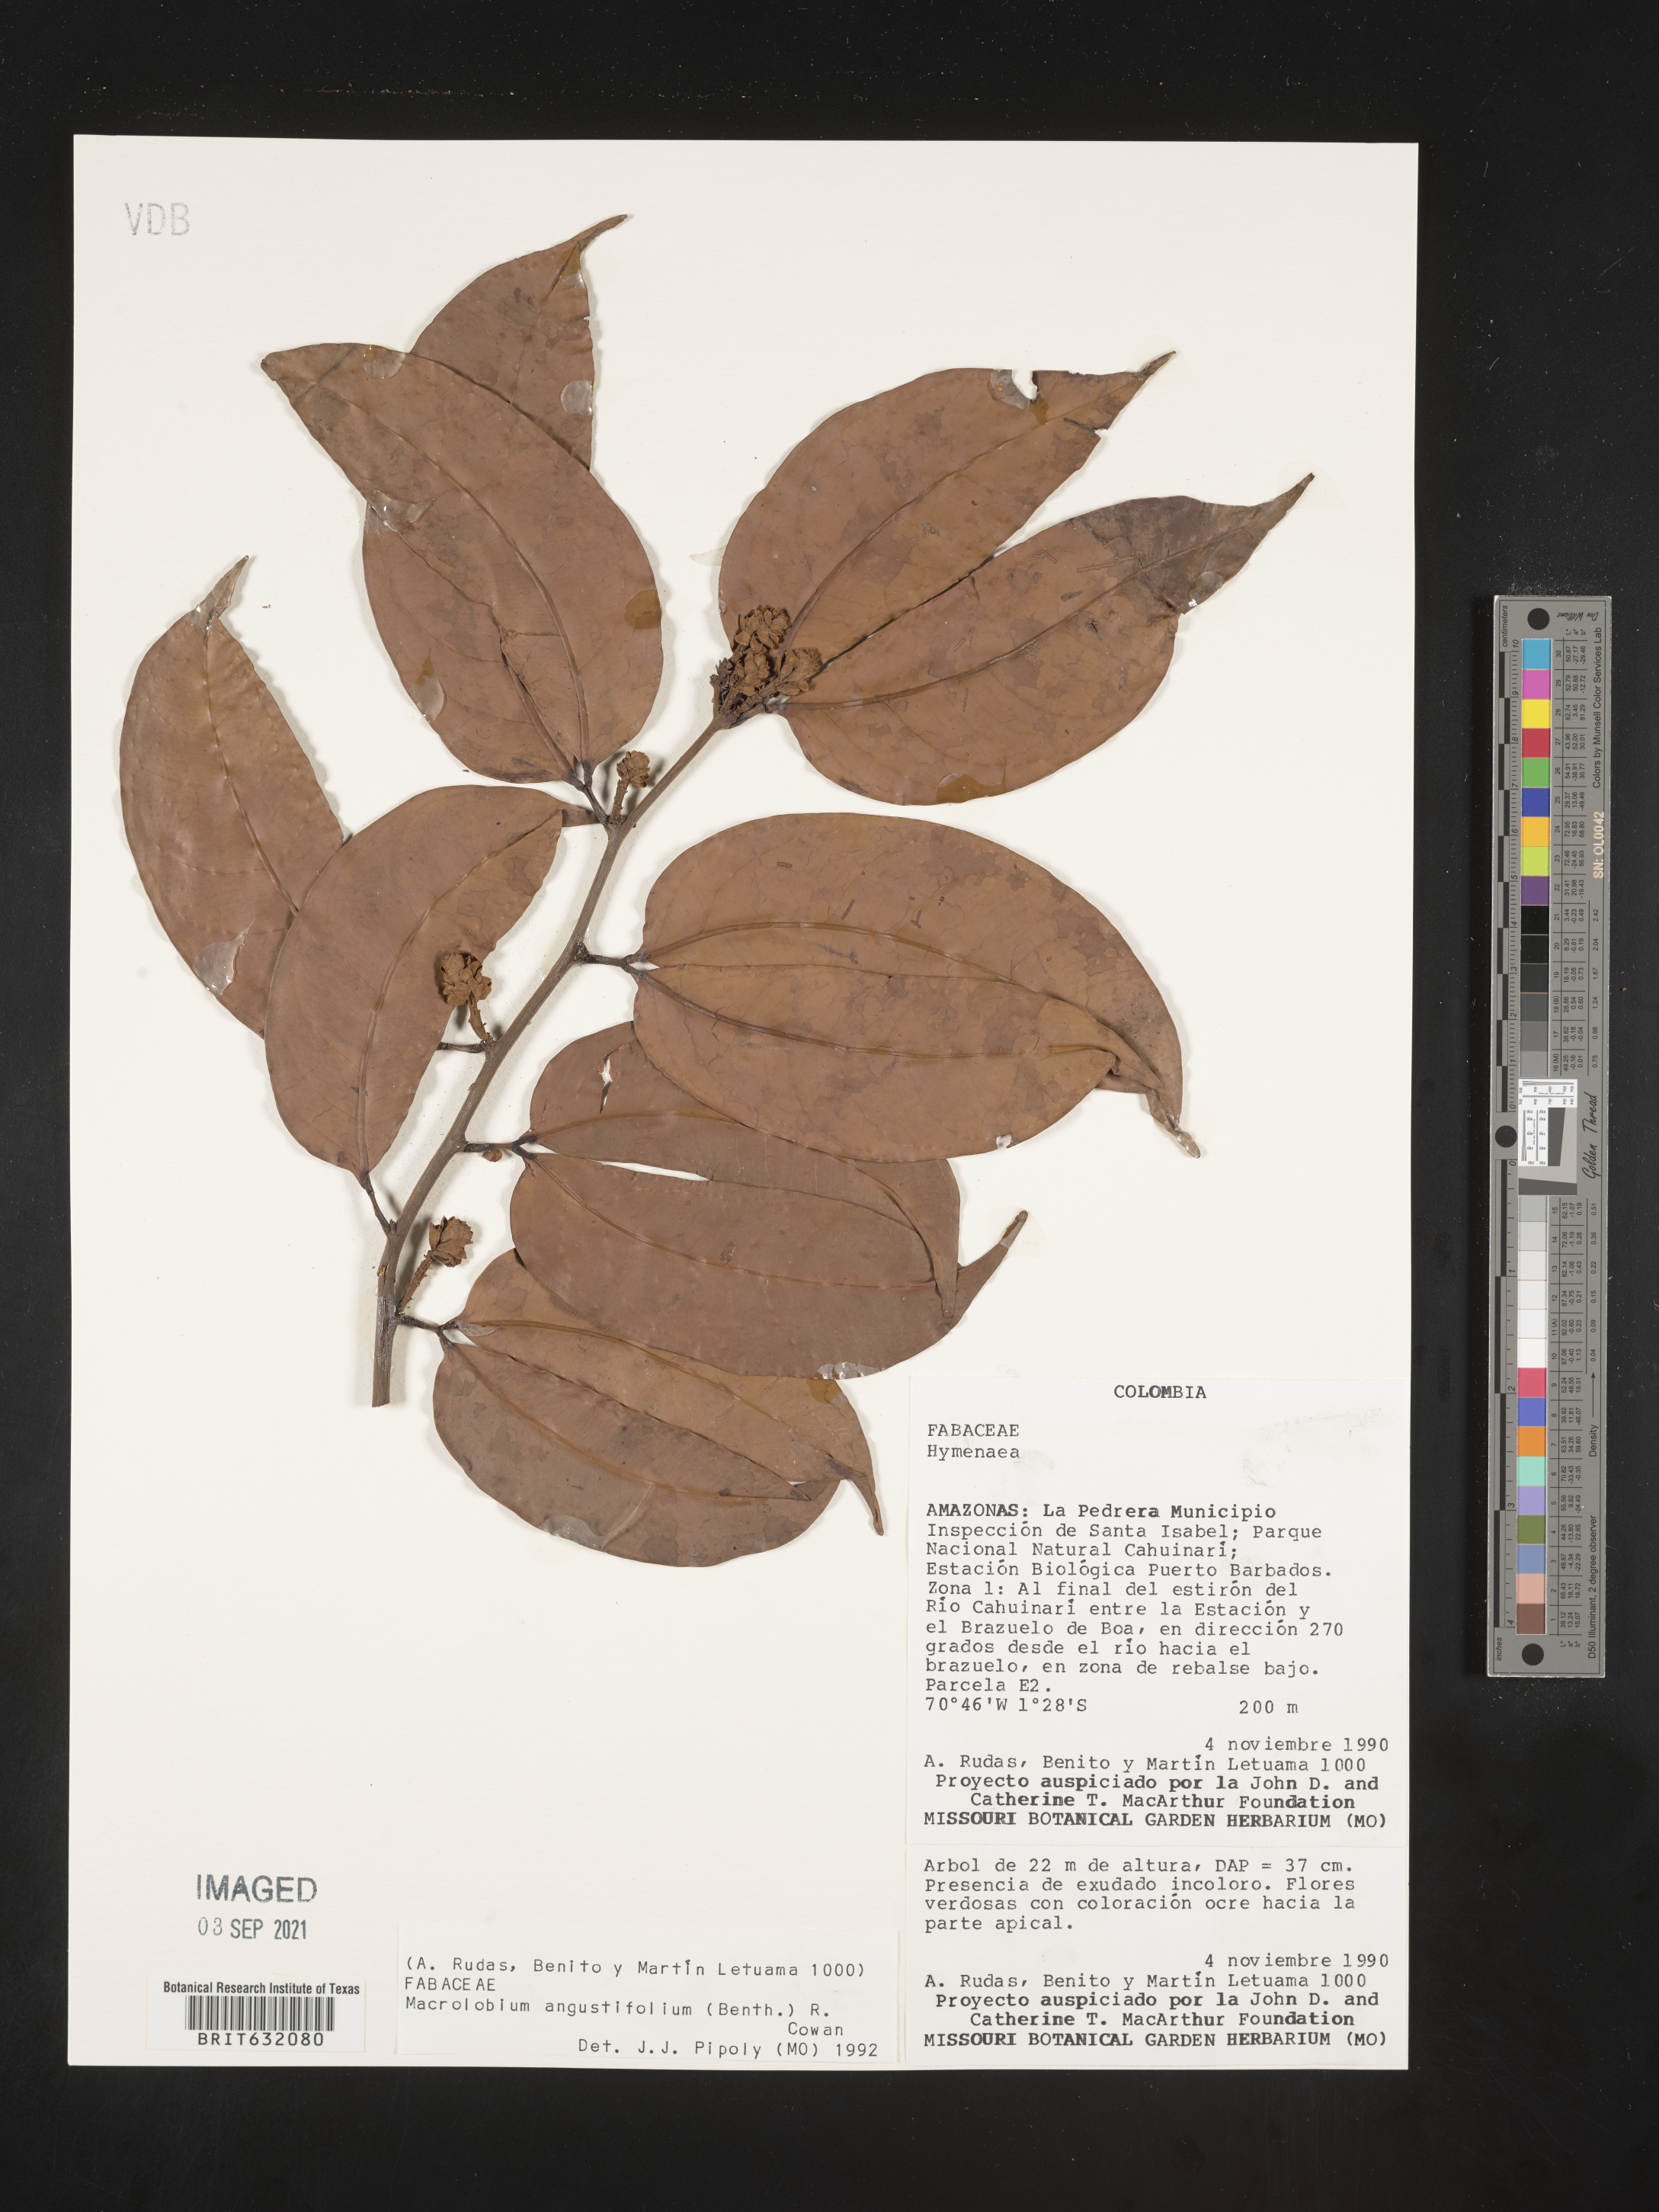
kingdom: Plantae
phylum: Tracheophyta
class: Magnoliopsida
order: Fabales
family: Fabaceae
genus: Macrolobium
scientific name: Macrolobium
